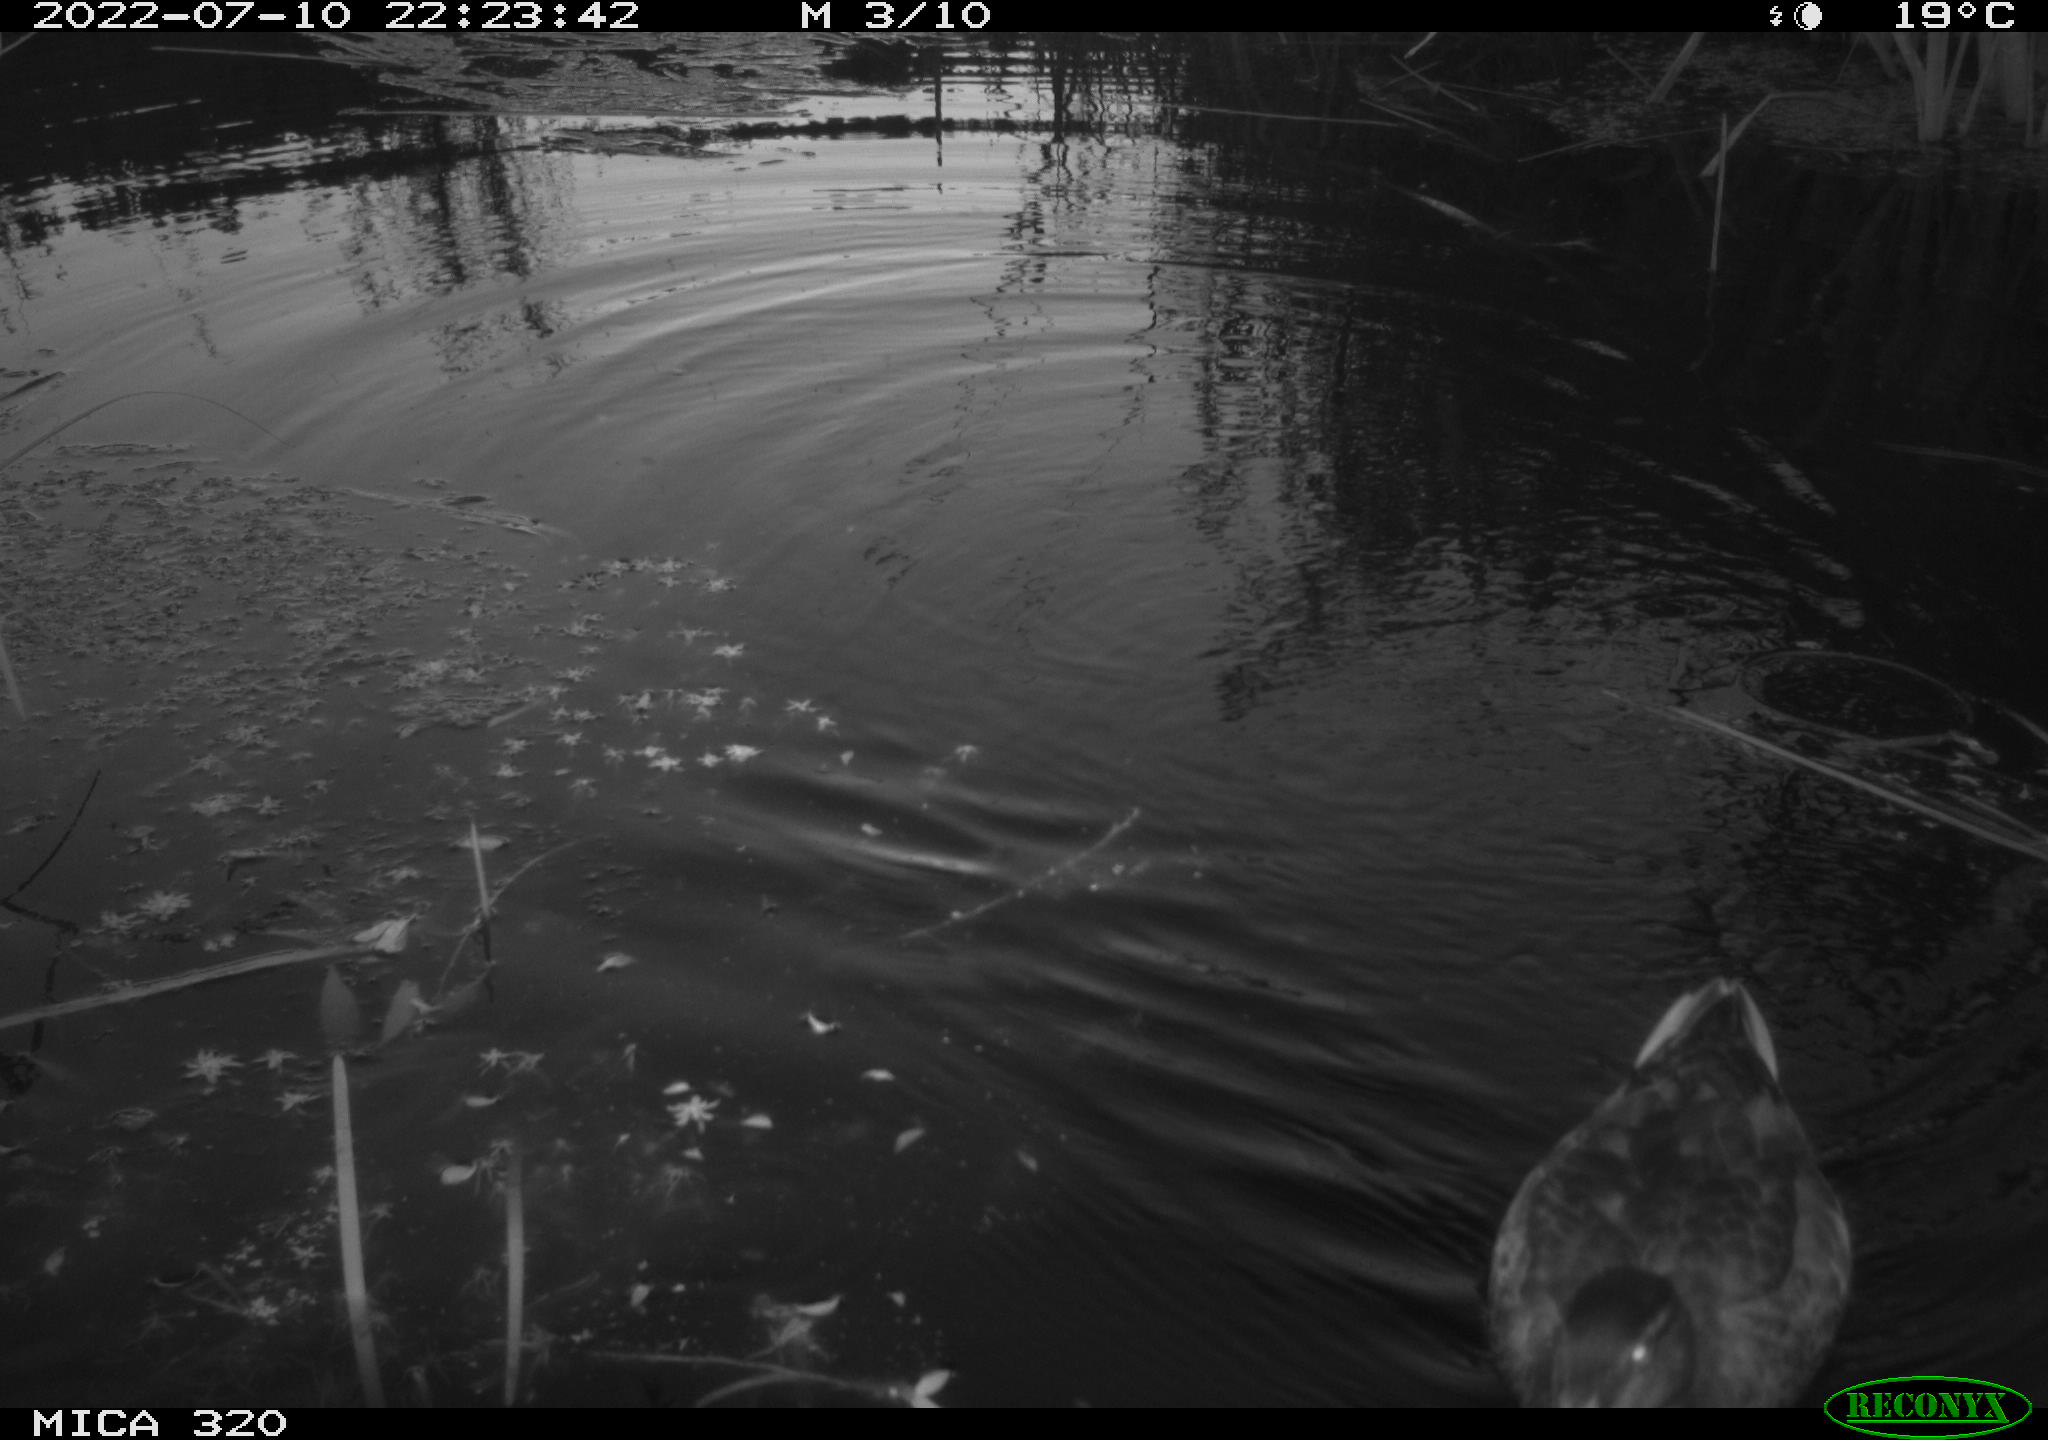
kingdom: Animalia
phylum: Chordata
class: Aves
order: Anseriformes
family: Anatidae
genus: Anas
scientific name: Anas platyrhynchos
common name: Mallard
